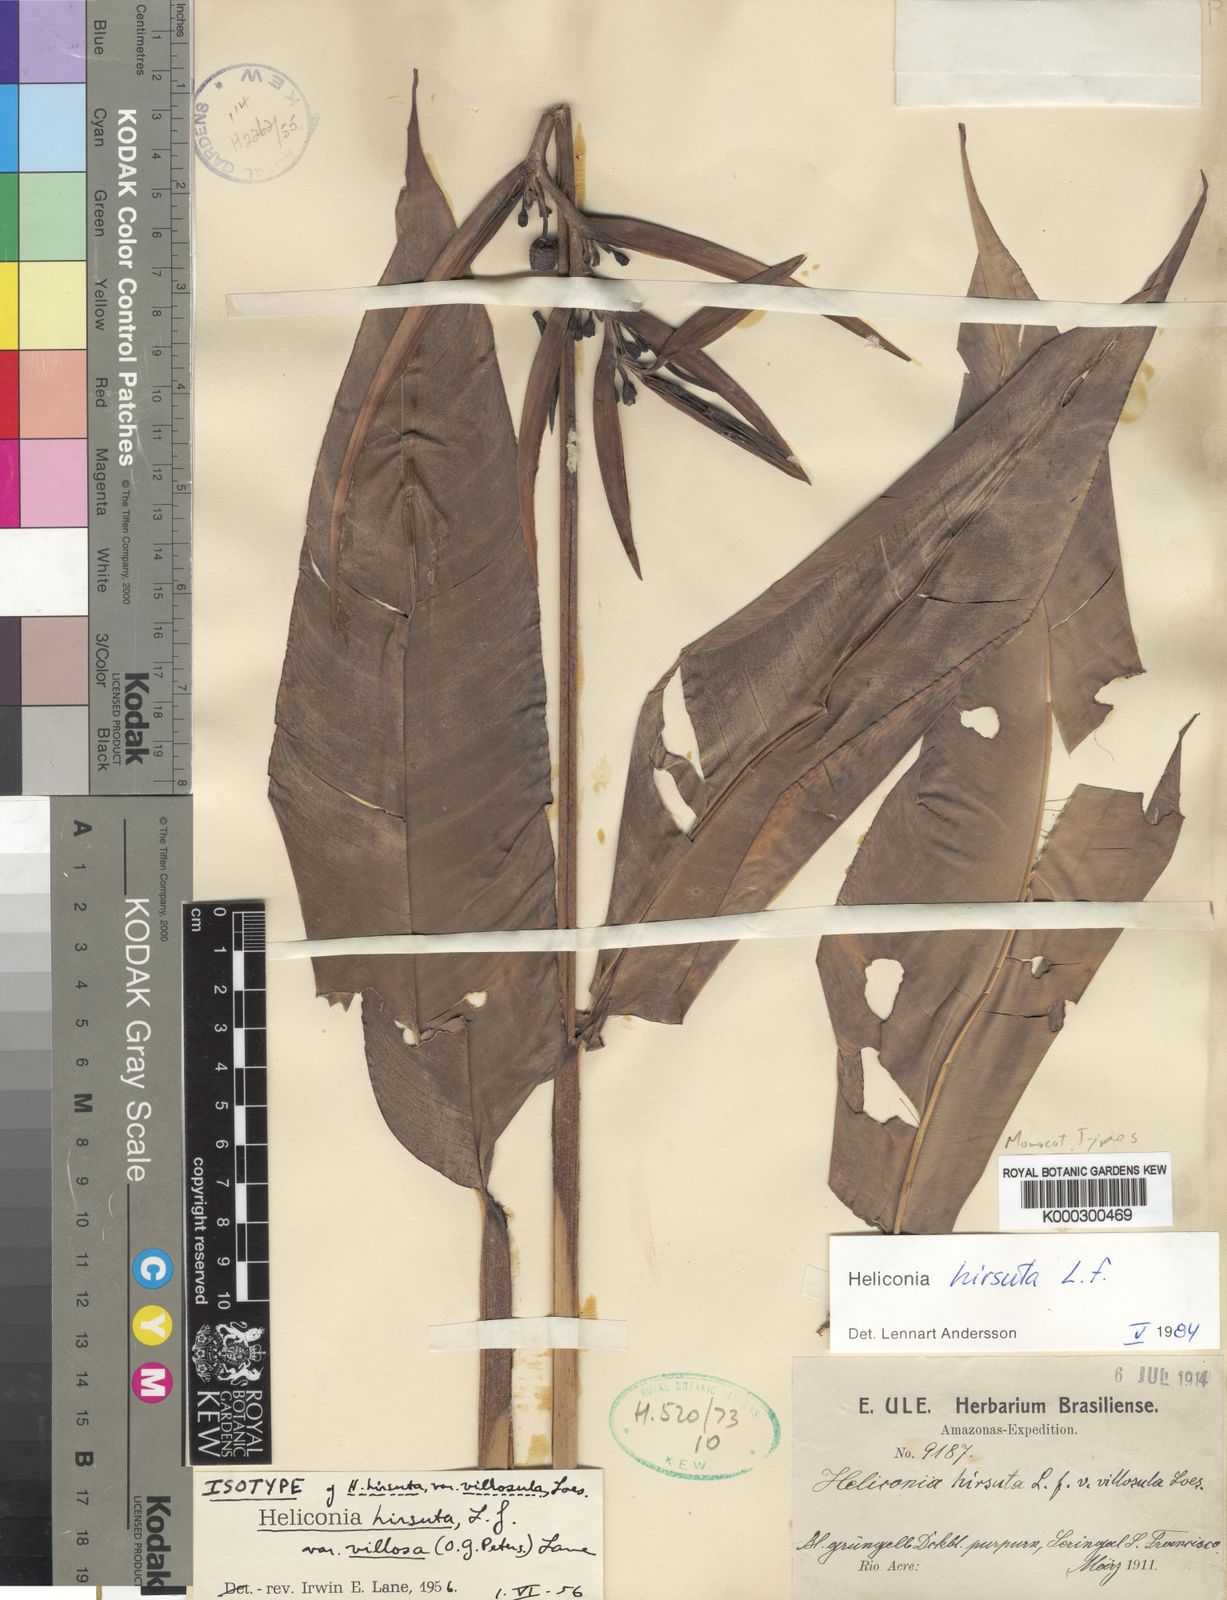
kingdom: Plantae
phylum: Tracheophyta
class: Liliopsida
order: Zingiberales
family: Heliconiaceae
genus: Heliconia
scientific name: Heliconia hirsuta
